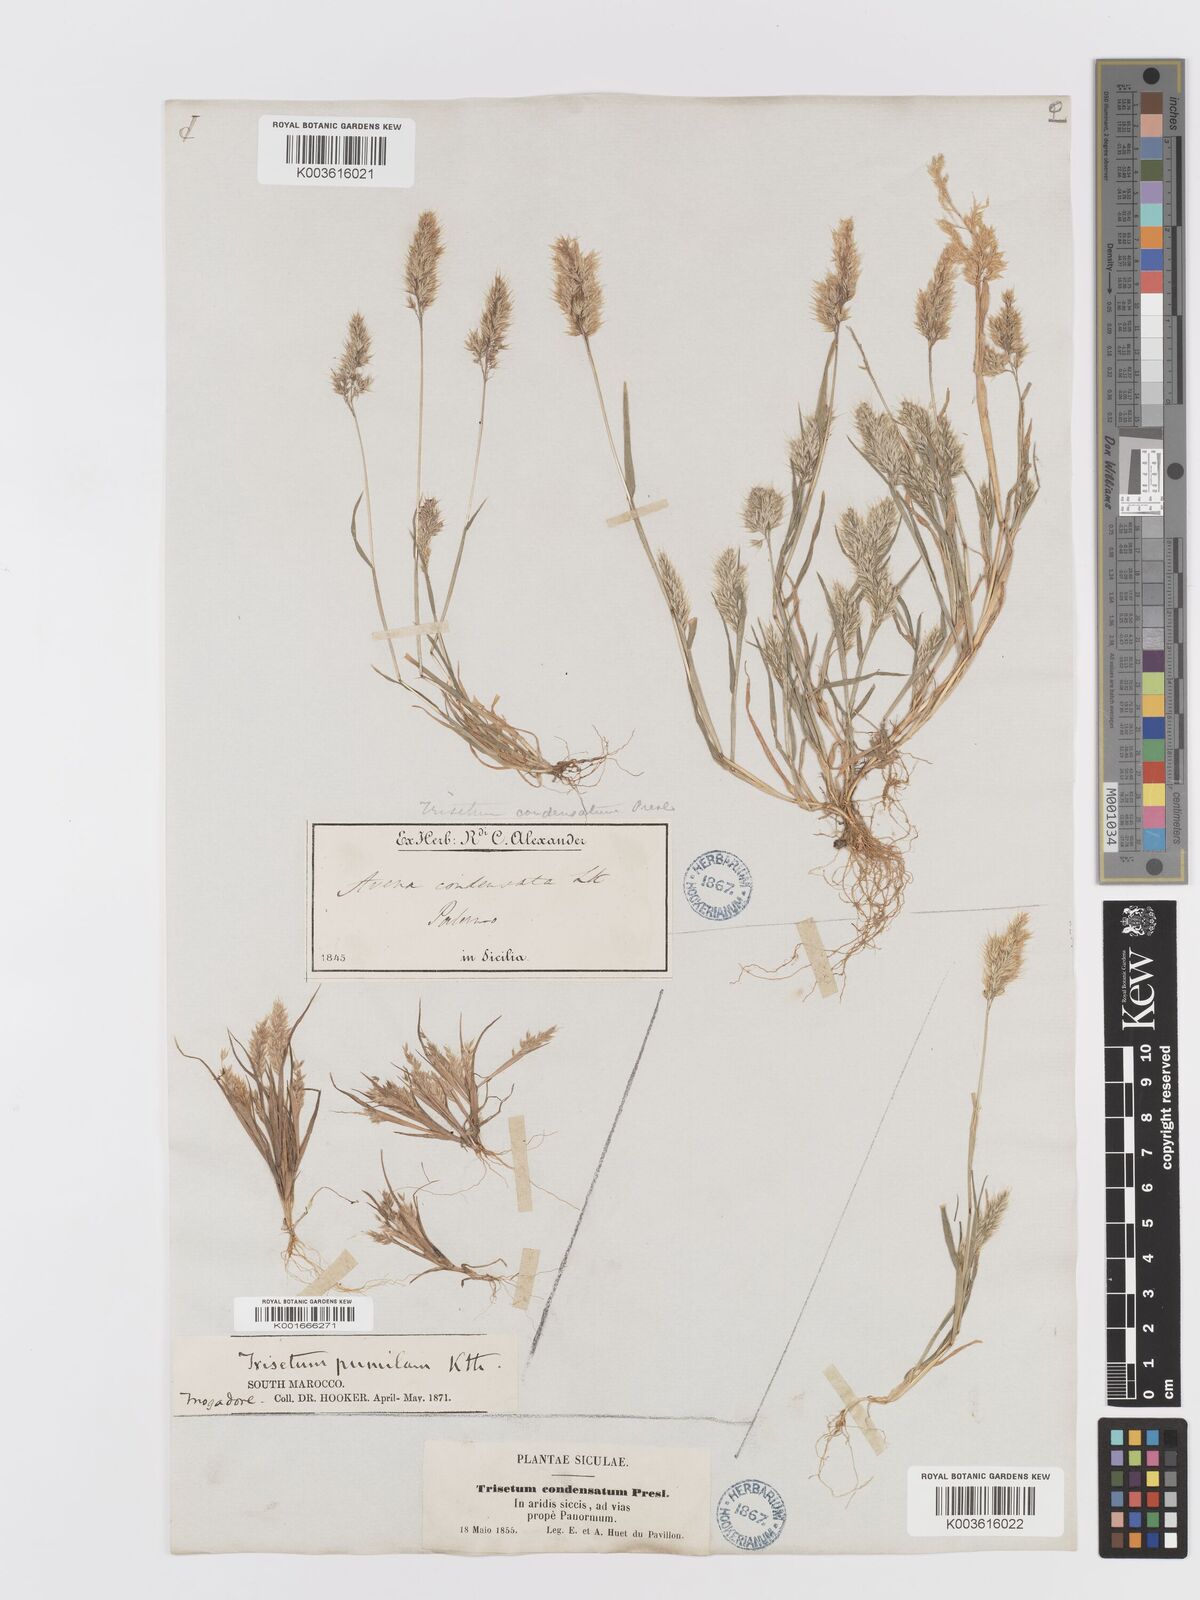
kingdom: Plantae
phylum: Tracheophyta
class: Liliopsida
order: Poales
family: Poaceae
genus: Trisetaria
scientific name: Trisetaria aurea
